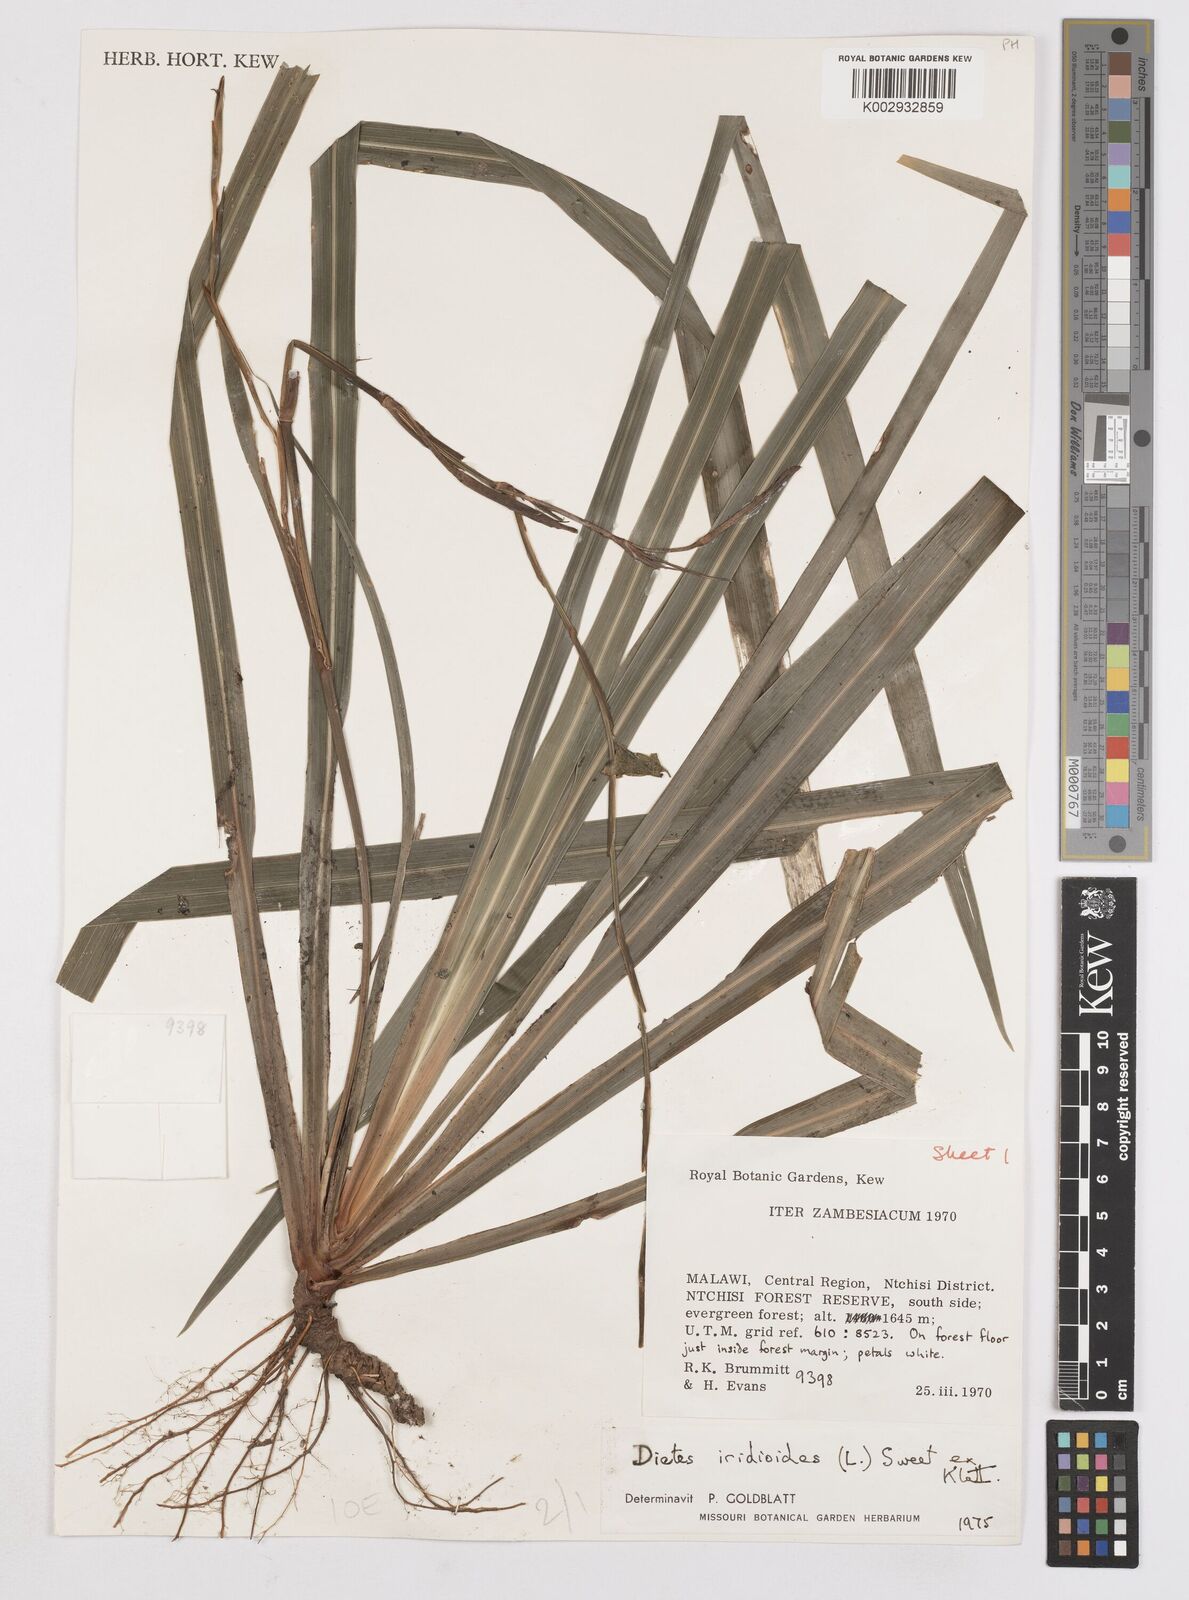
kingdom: Plantae
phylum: Tracheophyta
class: Liliopsida
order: Asparagales
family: Iridaceae
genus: Dietes
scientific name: Dietes iridioides
